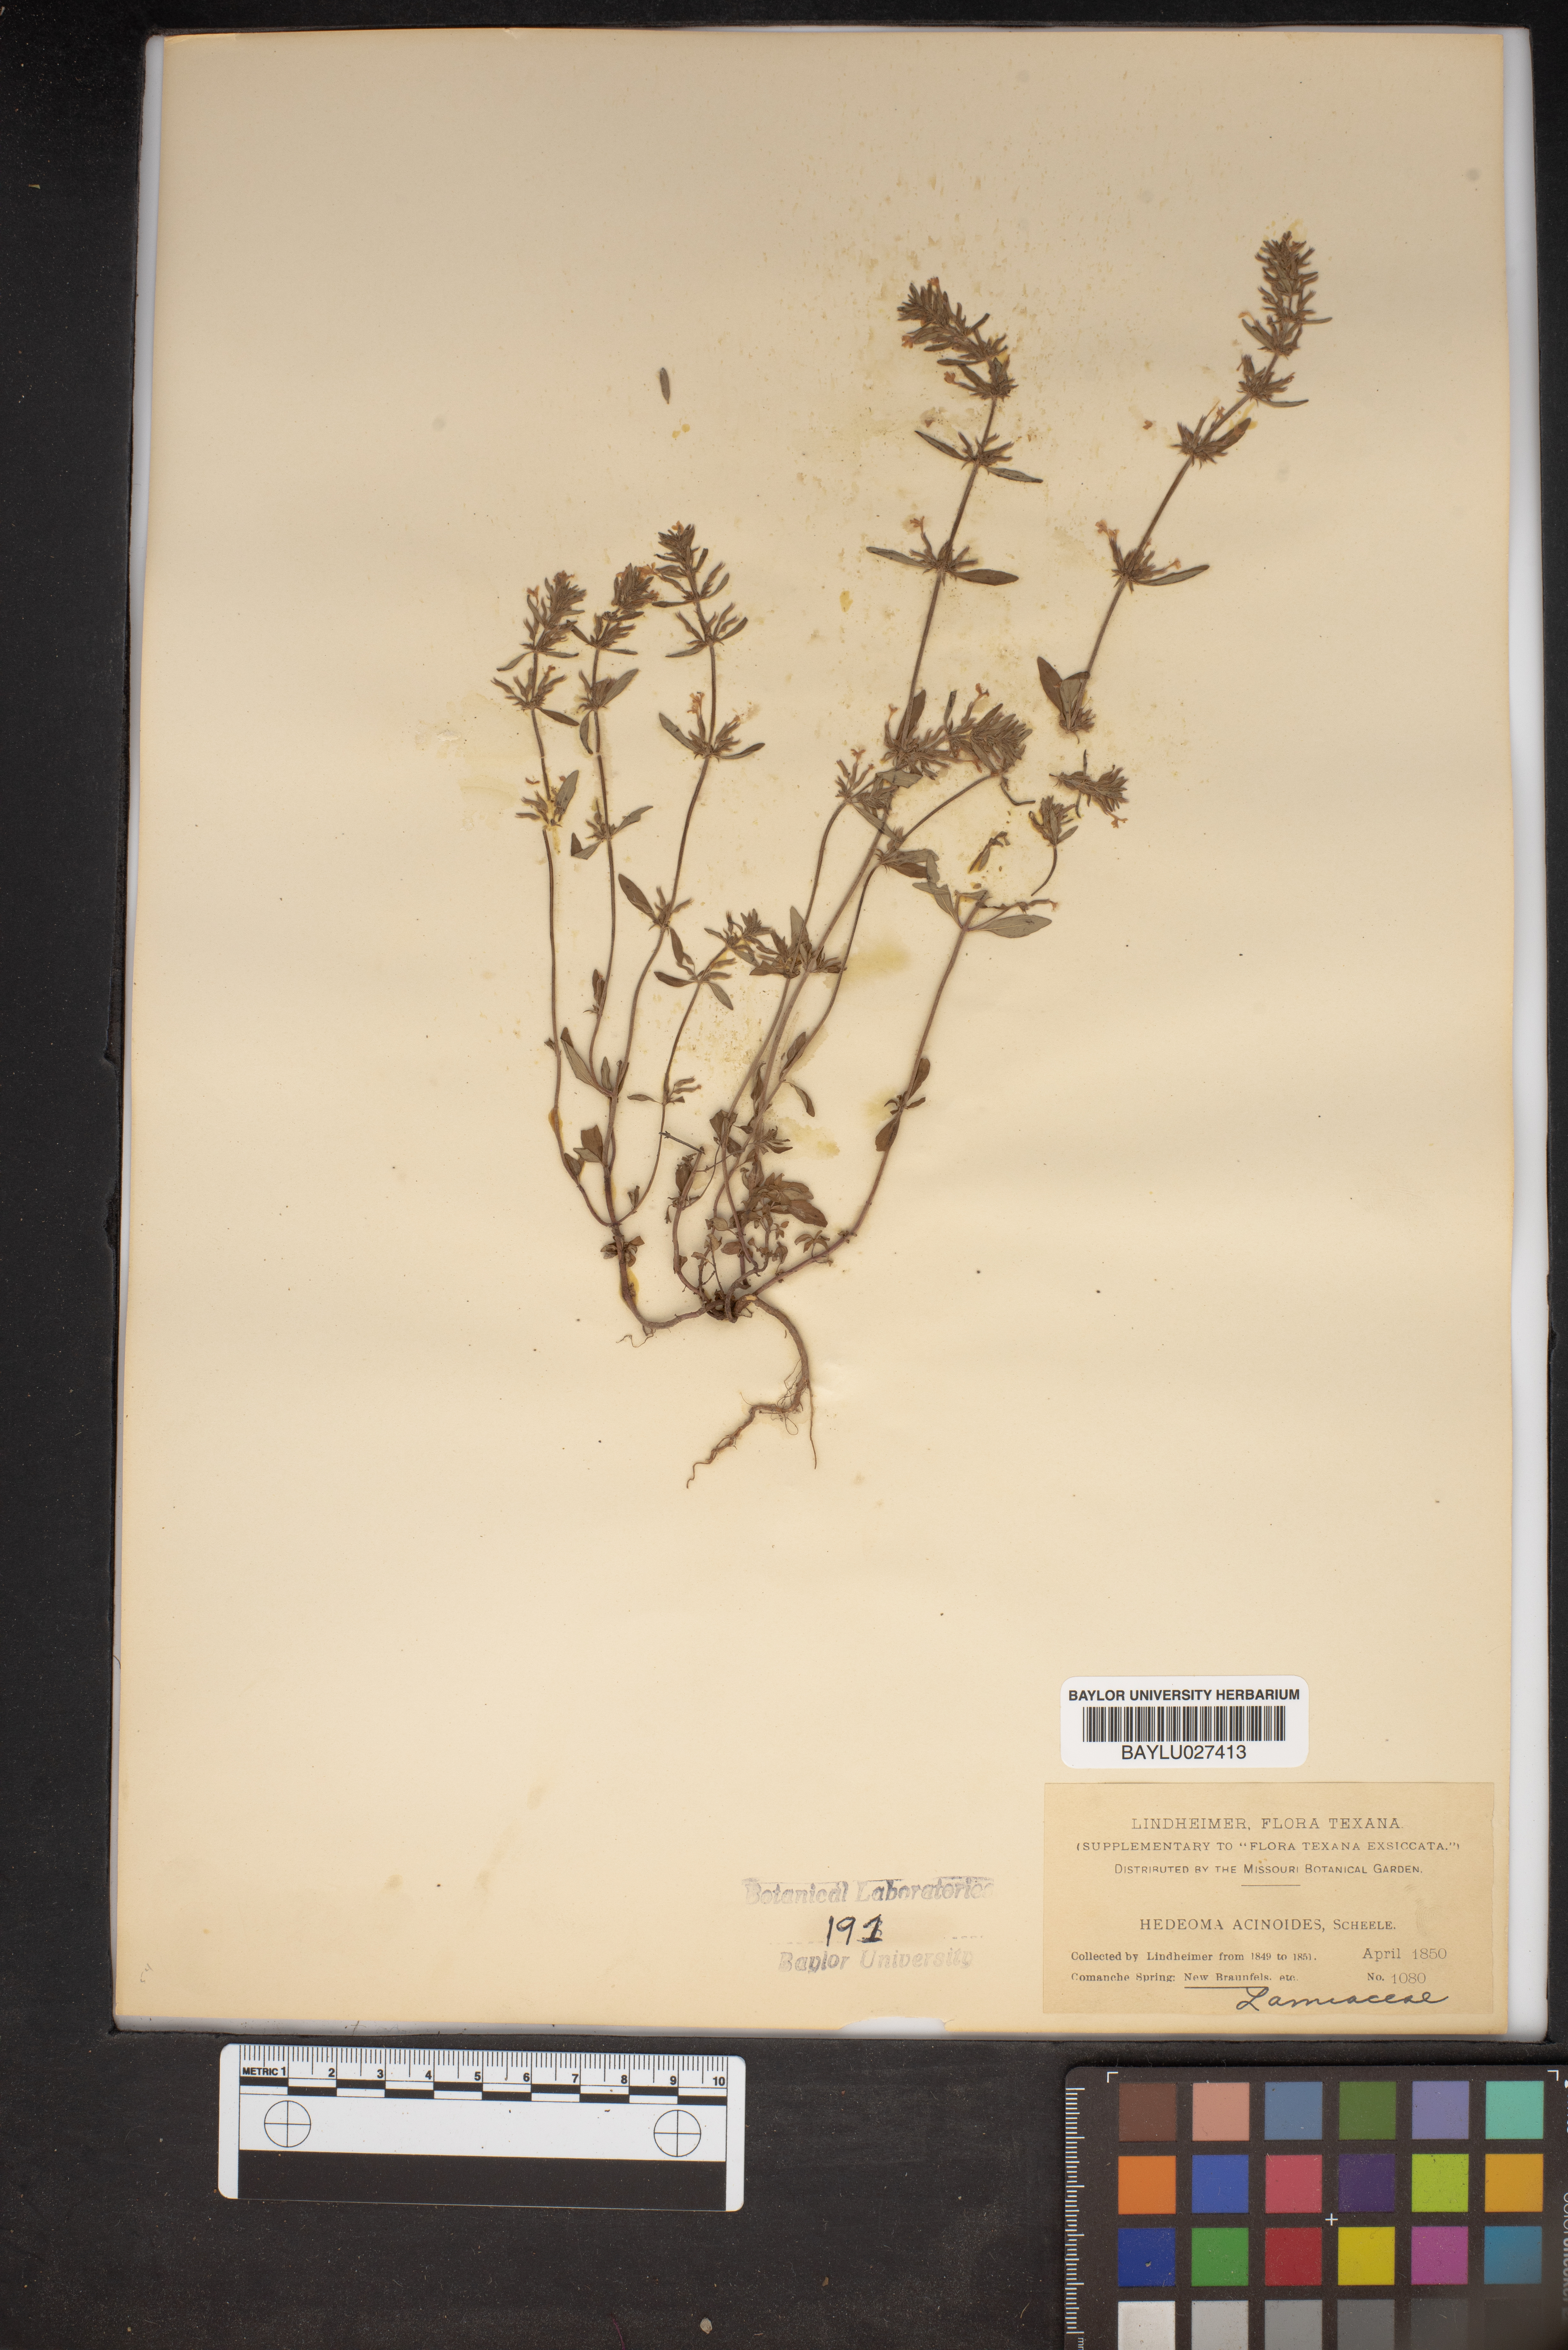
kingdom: Plantae
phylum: Tracheophyta
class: Magnoliopsida
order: Lamiales
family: Lamiaceae
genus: Hedeoma
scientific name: Hedeoma acinoides
